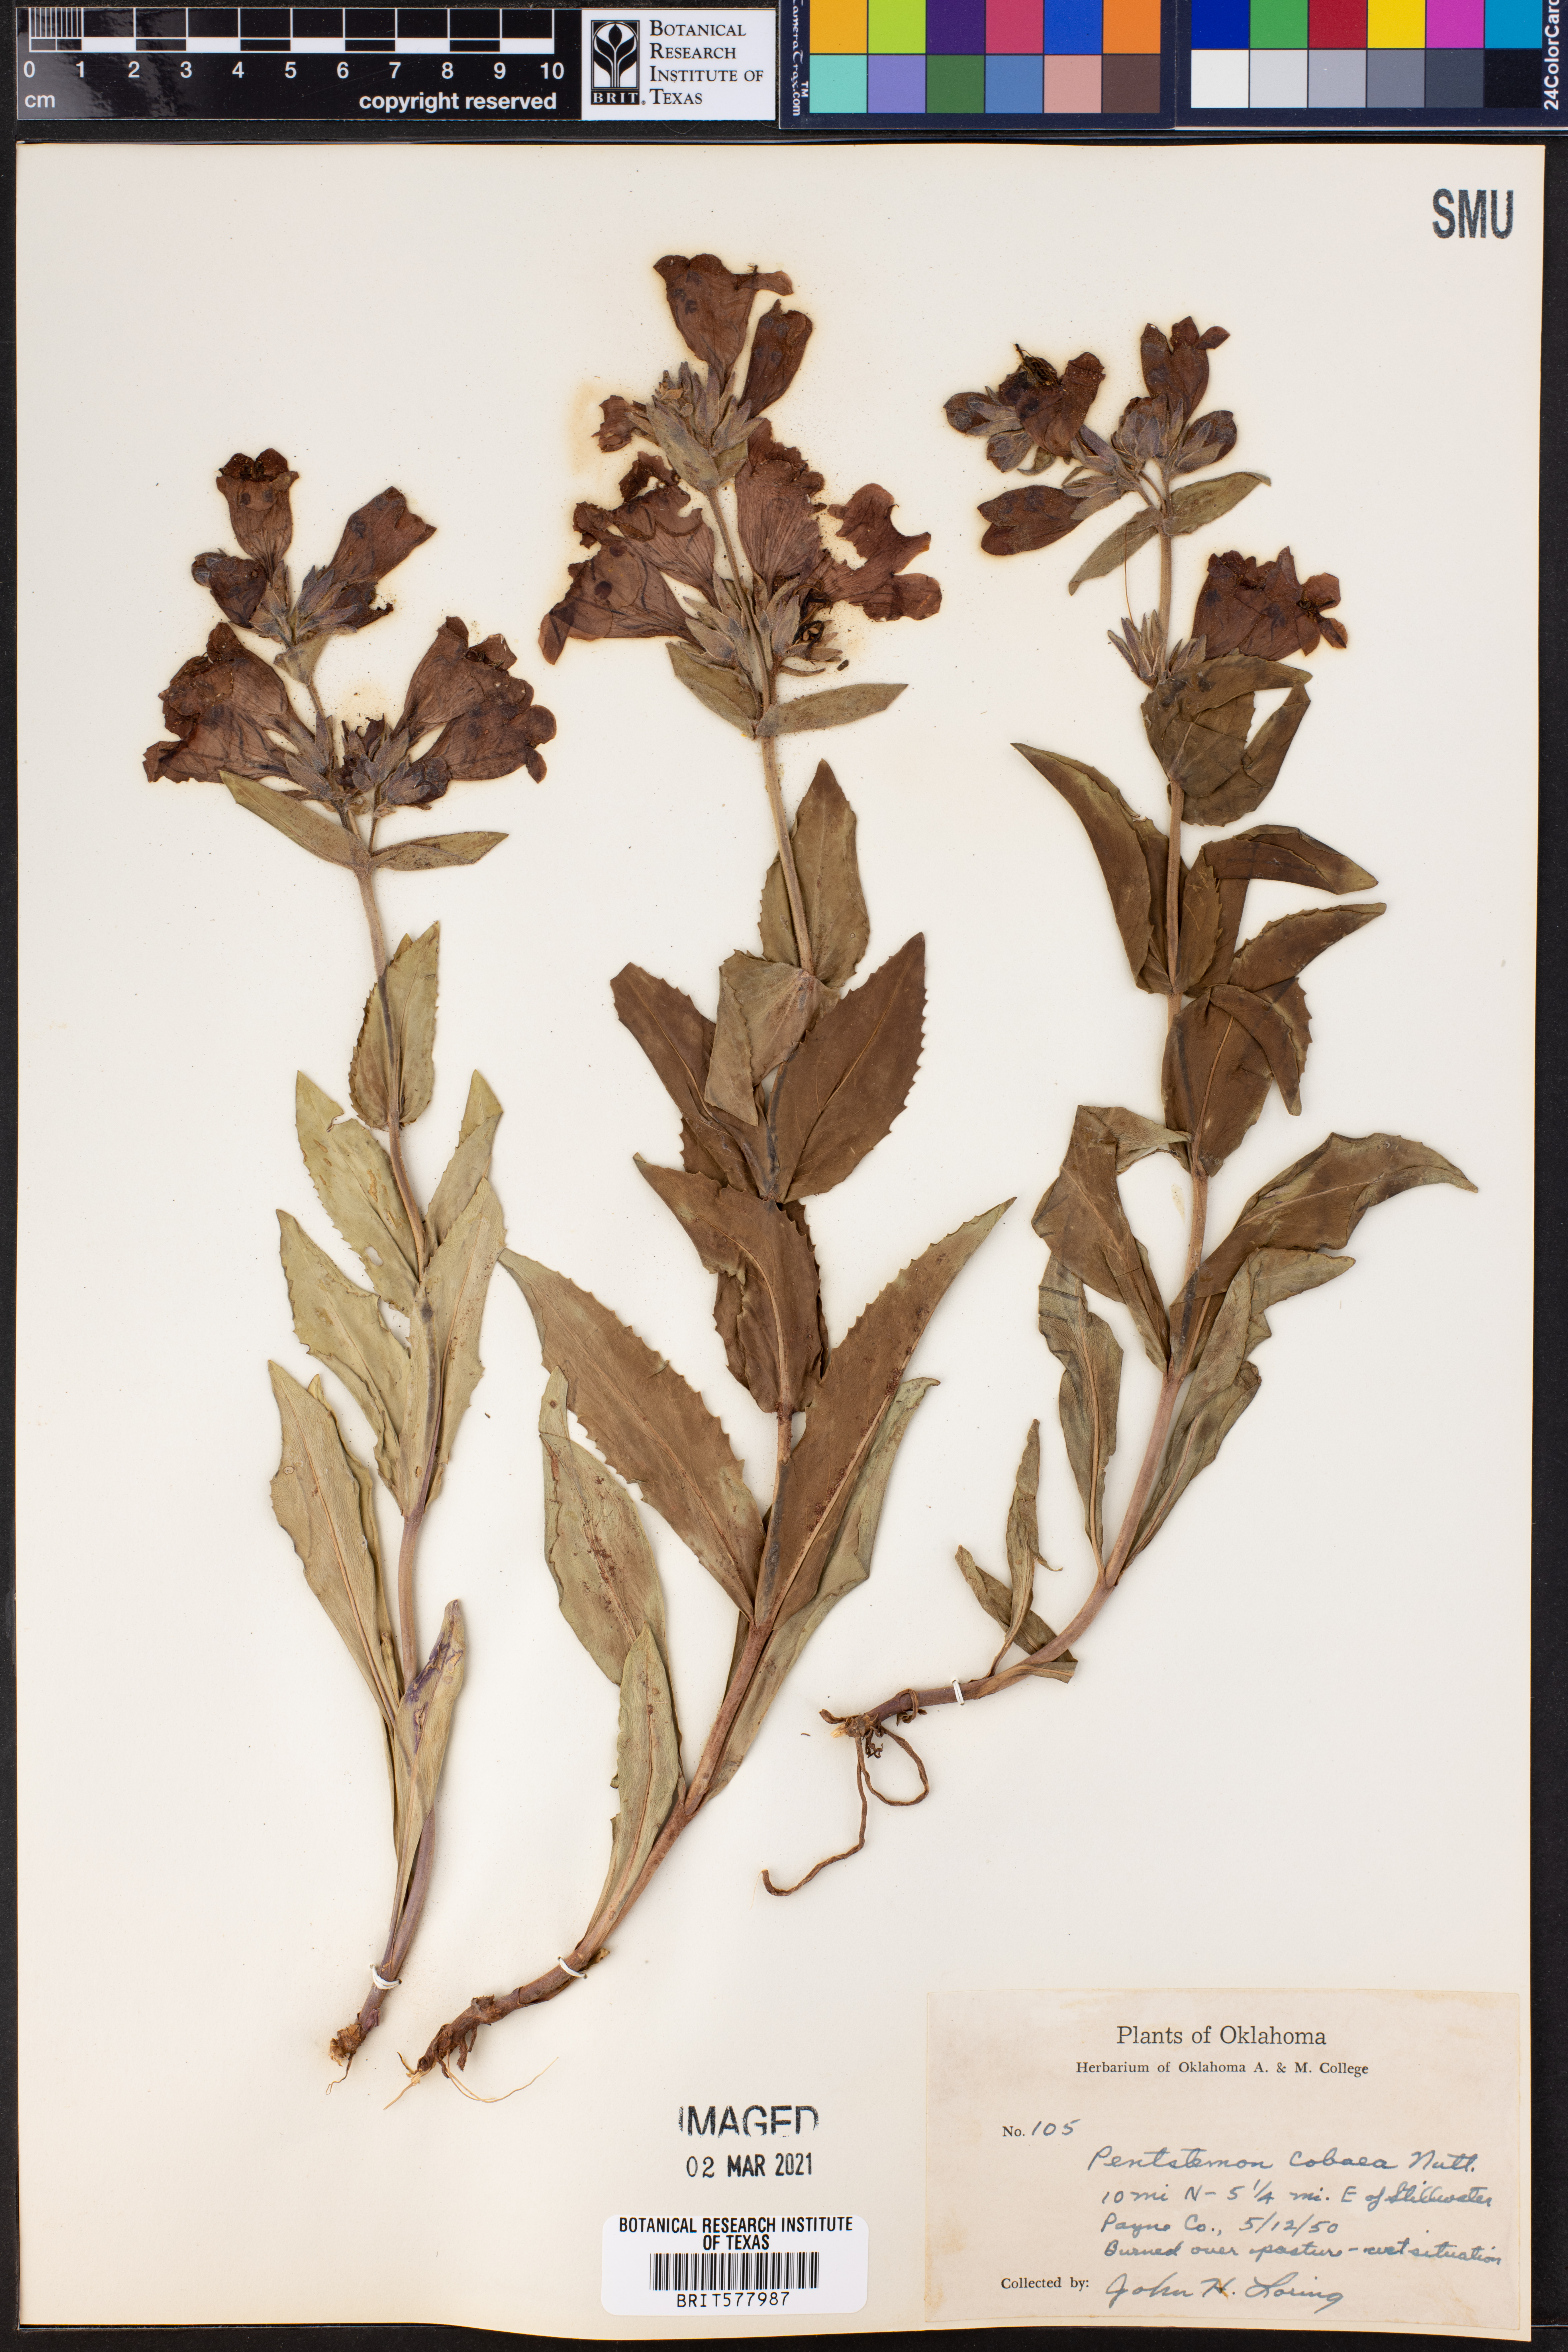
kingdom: Plantae
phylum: Tracheophyta
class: Magnoliopsida
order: Lamiales
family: Plantaginaceae
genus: Penstemon
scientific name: Penstemon cobaea
